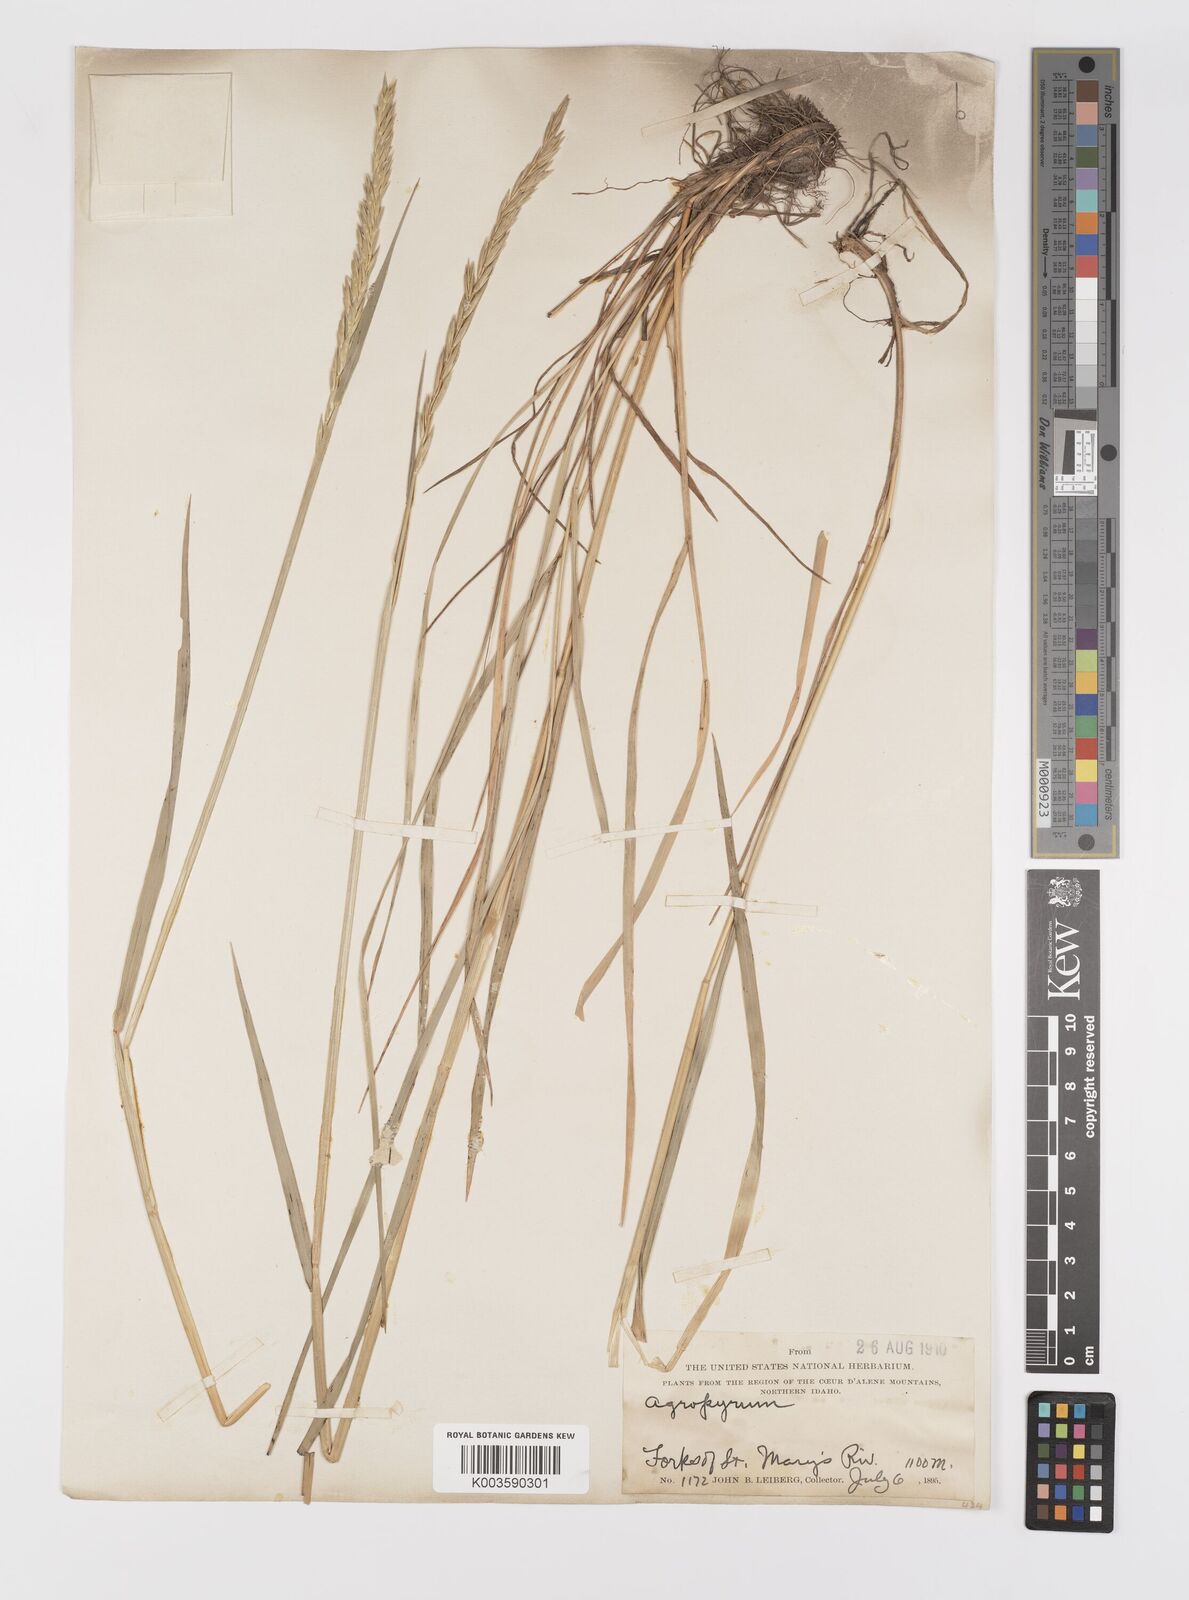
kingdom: Plantae
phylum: Tracheophyta
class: Liliopsida
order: Poales
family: Poaceae
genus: Elymus
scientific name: Elymus
